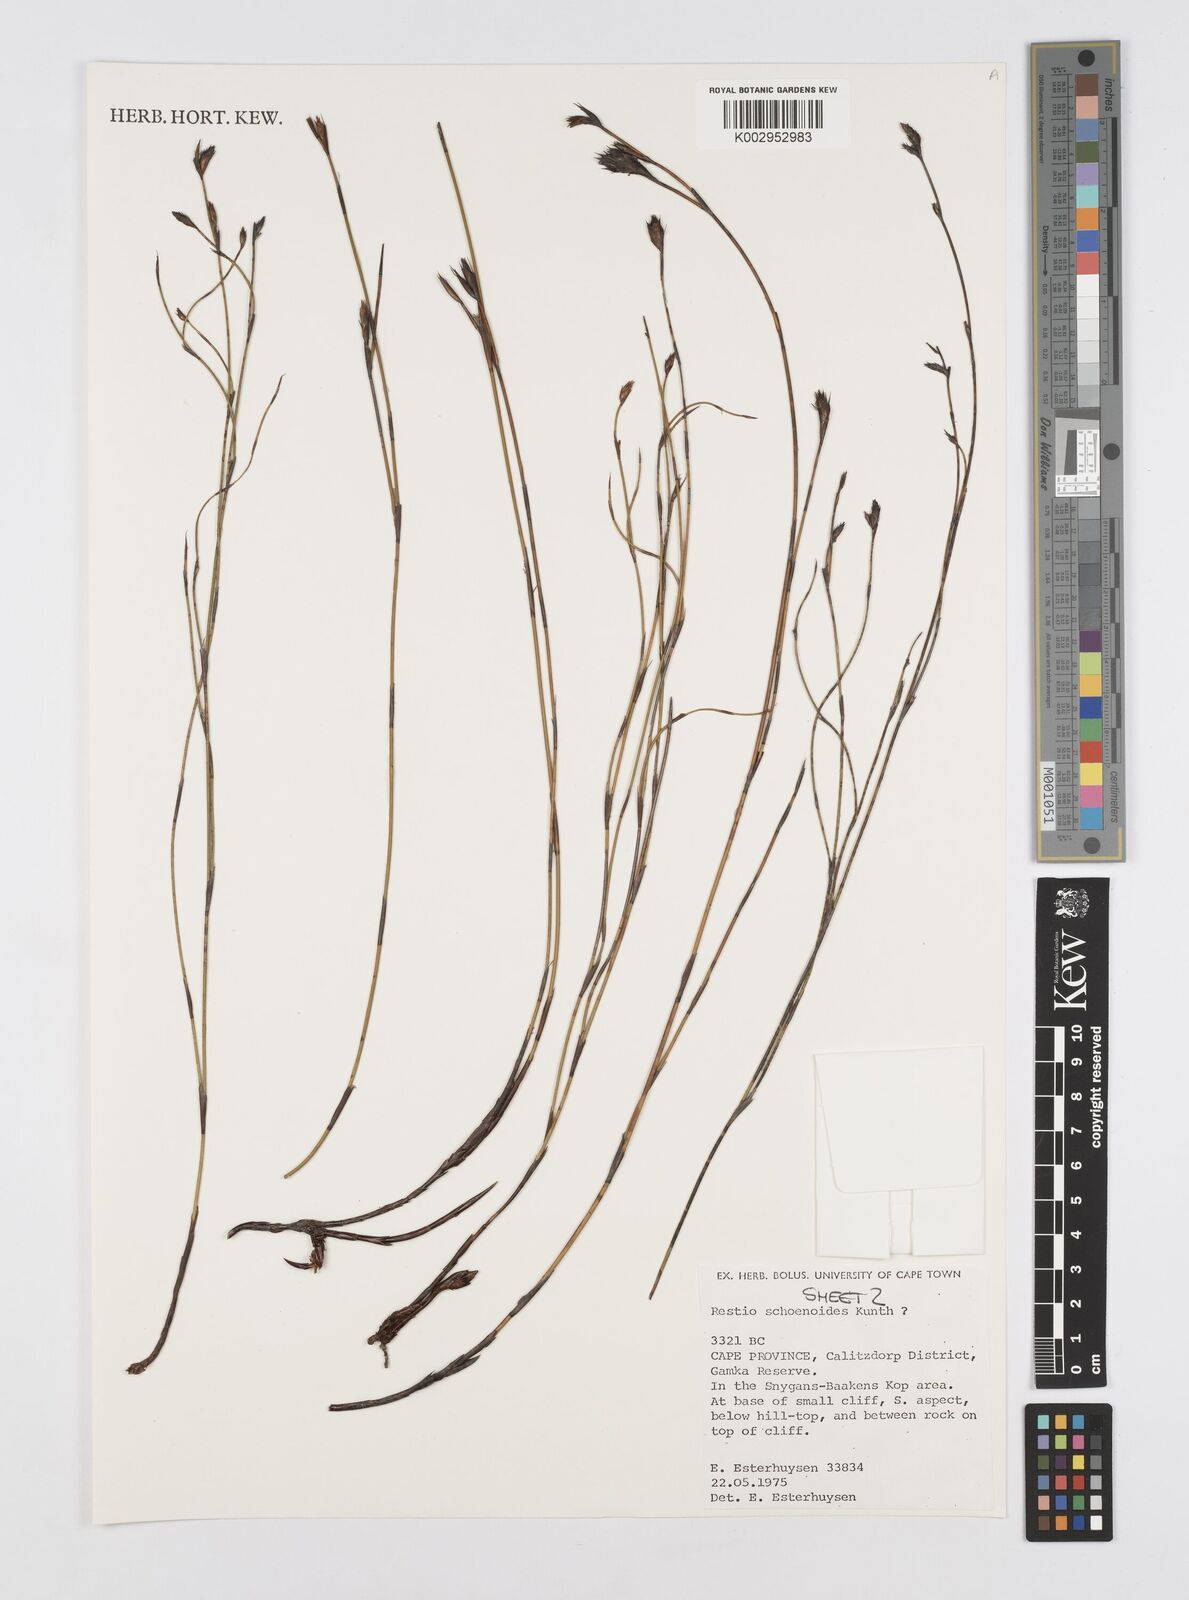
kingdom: Plantae
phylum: Tracheophyta
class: Liliopsida
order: Poales
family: Restionaceae
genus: Restio
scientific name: Restio schoenoides
